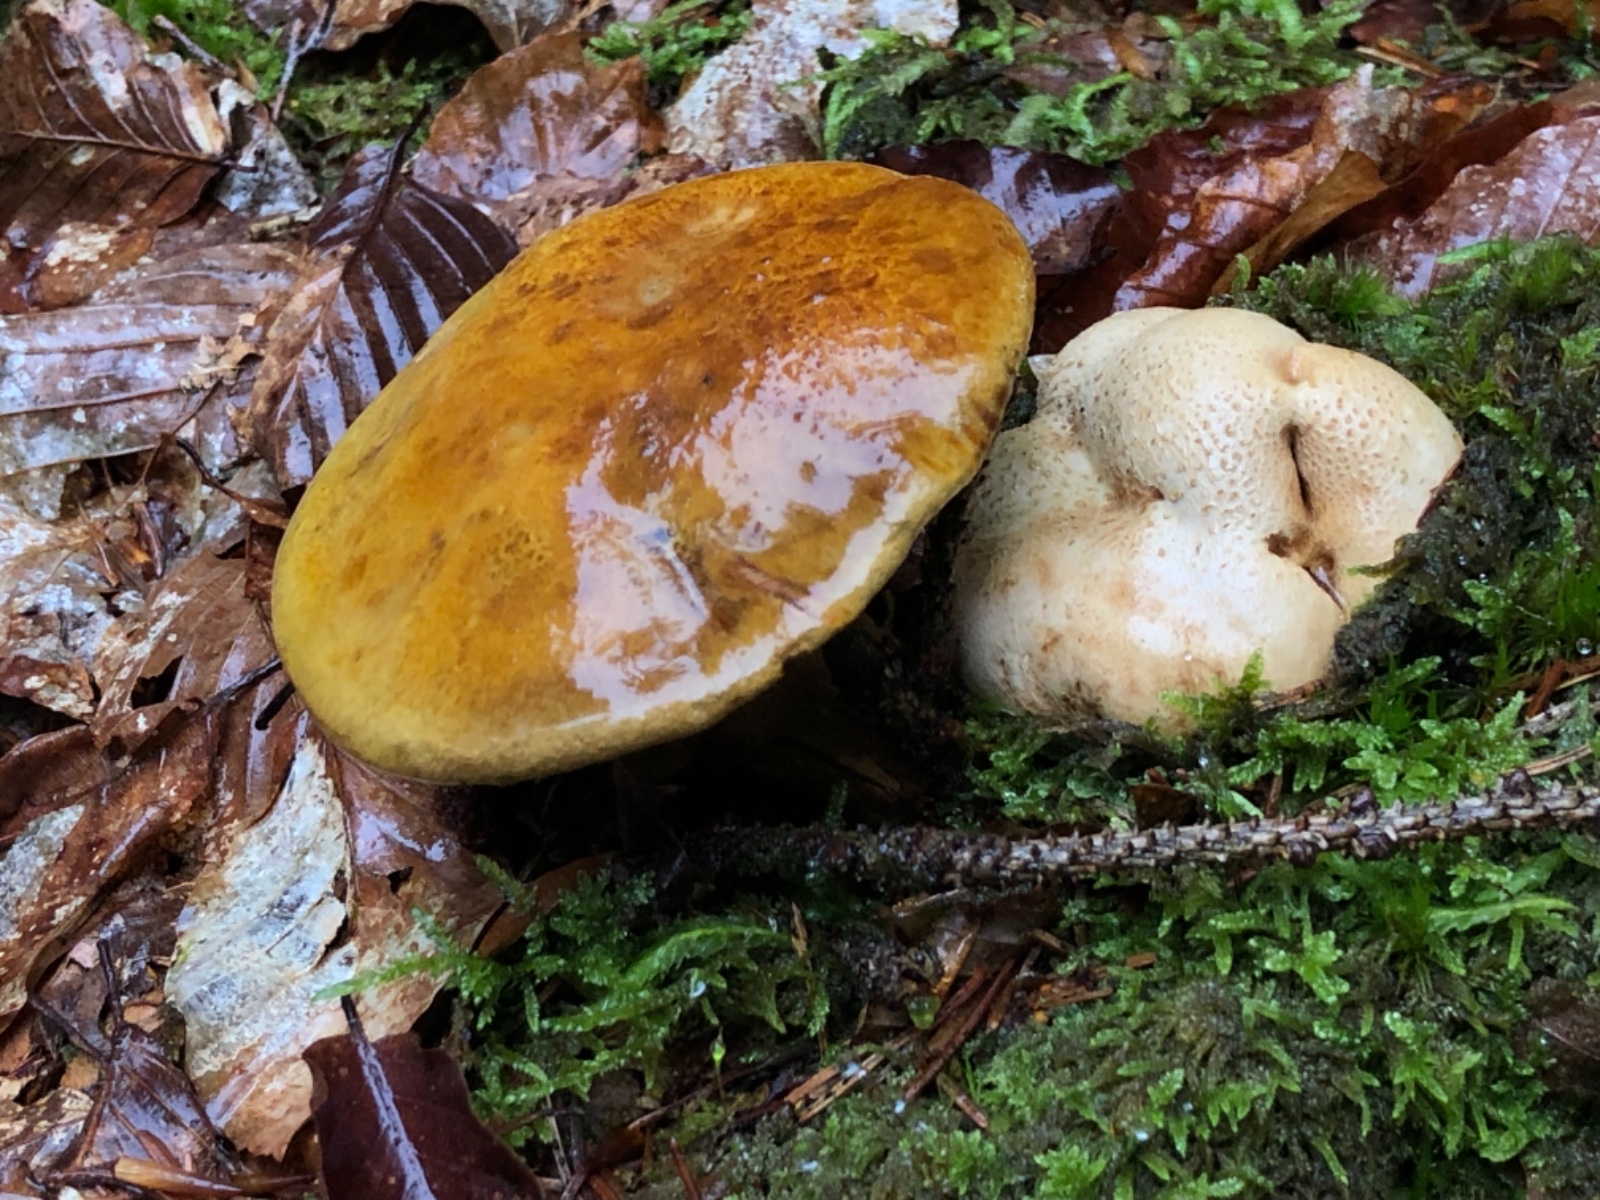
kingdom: Fungi
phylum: Basidiomycota
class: Agaricomycetes
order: Boletales
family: Boletaceae
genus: Pseudoboletus
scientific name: Pseudoboletus parasiticus
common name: snyltende rørhat
